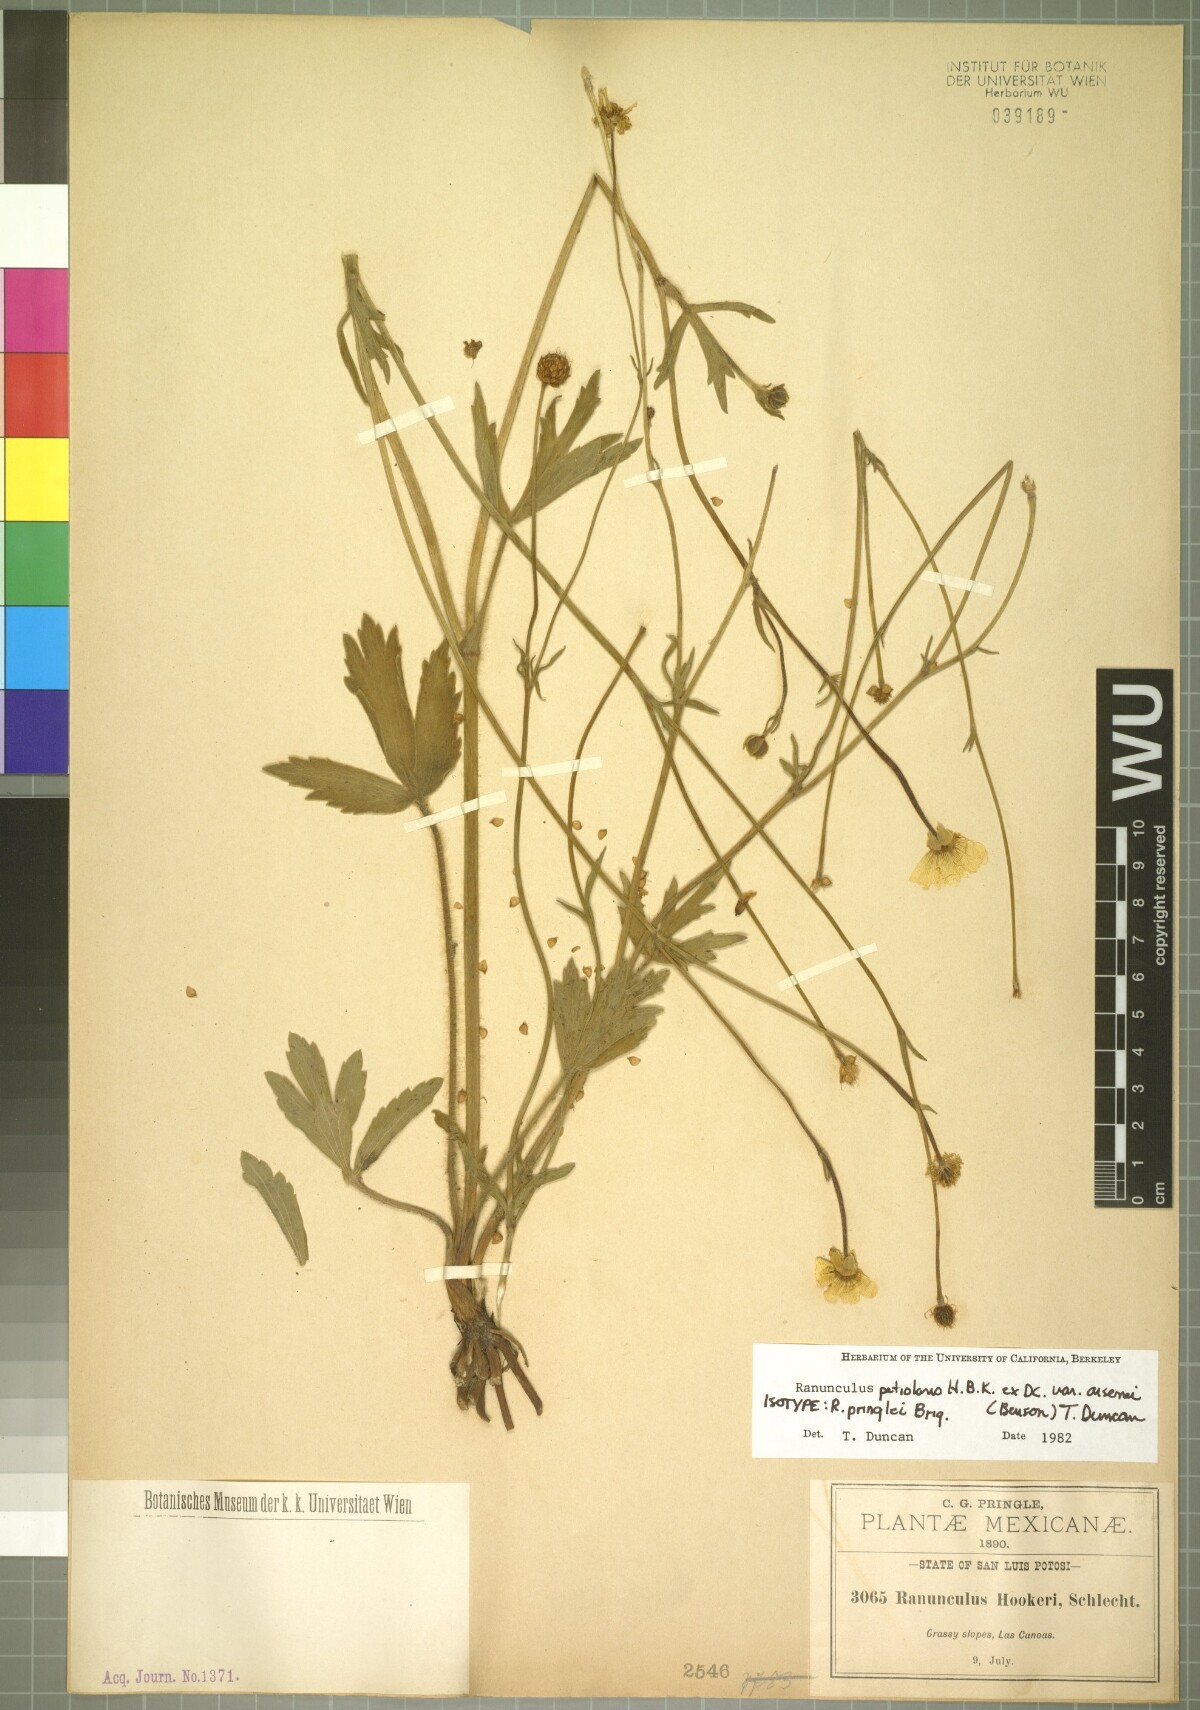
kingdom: Plantae
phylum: Tracheophyta
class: Magnoliopsida
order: Ranunculales
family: Ranunculaceae
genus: Ranunculus
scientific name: Ranunculus petiolaris
